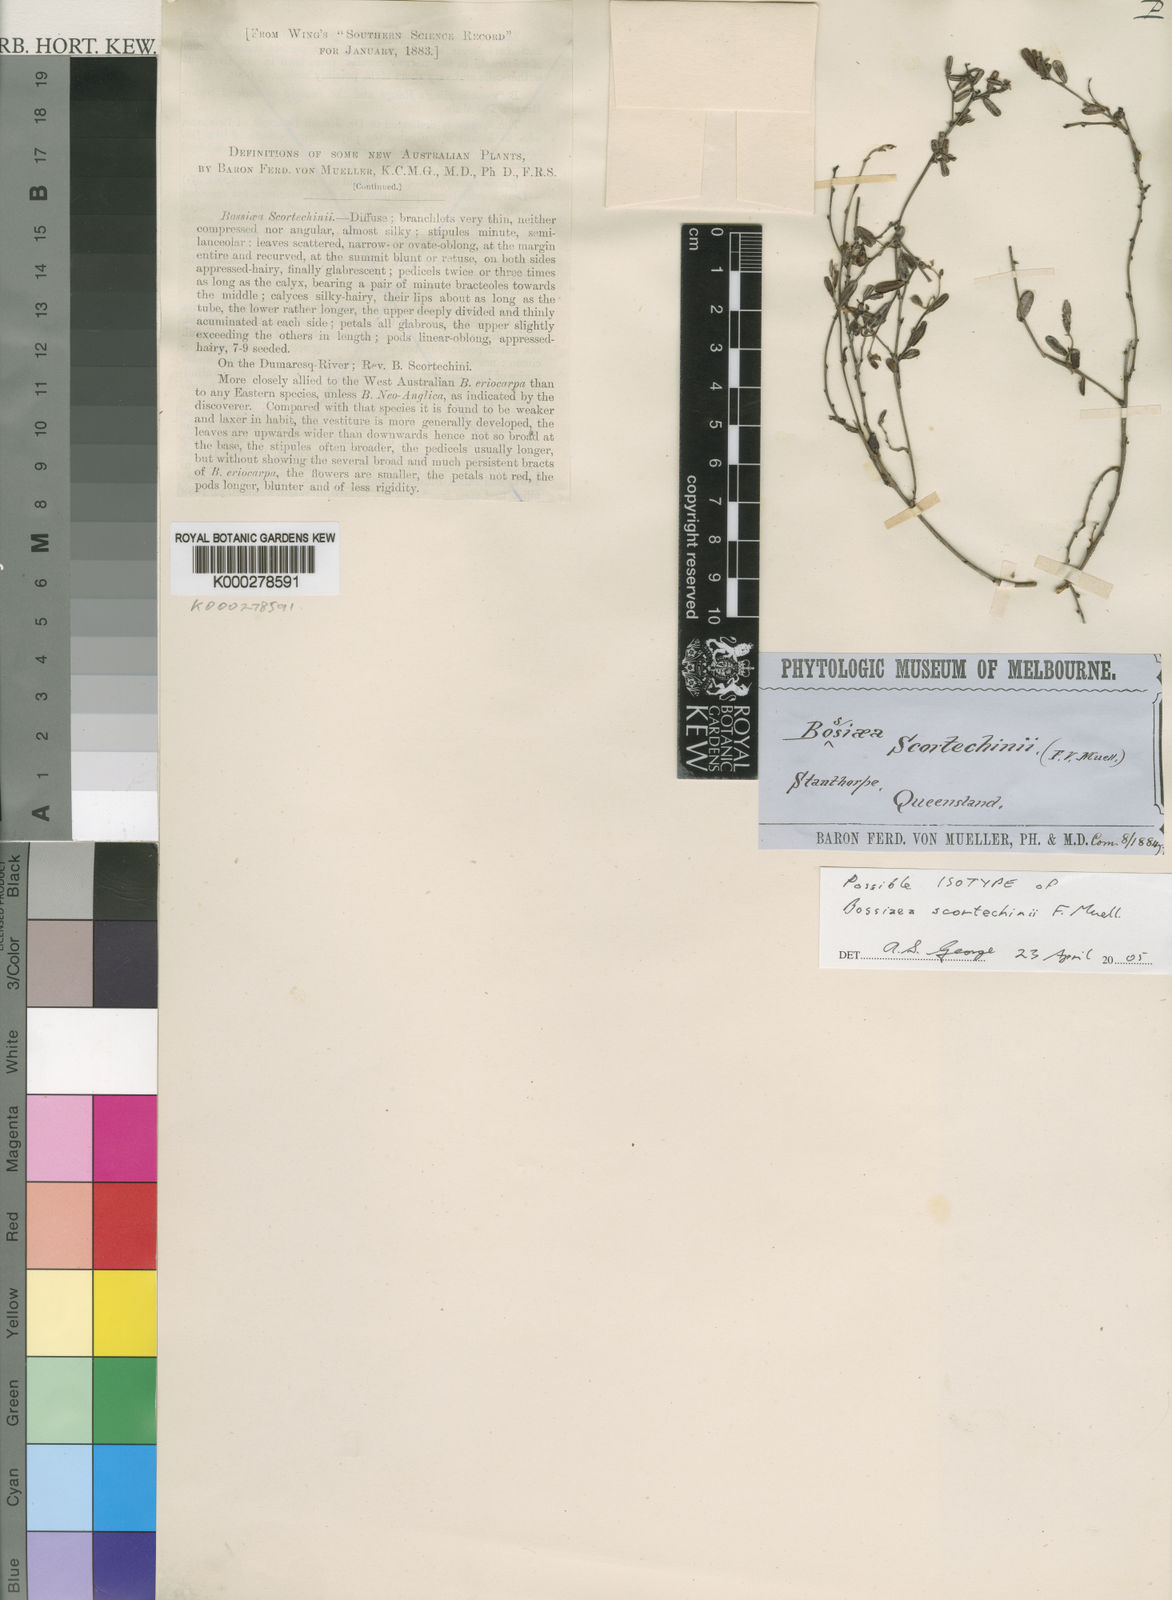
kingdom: Plantae
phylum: Tracheophyta
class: Magnoliopsida
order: Fabales
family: Fabaceae
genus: Bossiaea
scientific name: Bossiaea scortechinii
